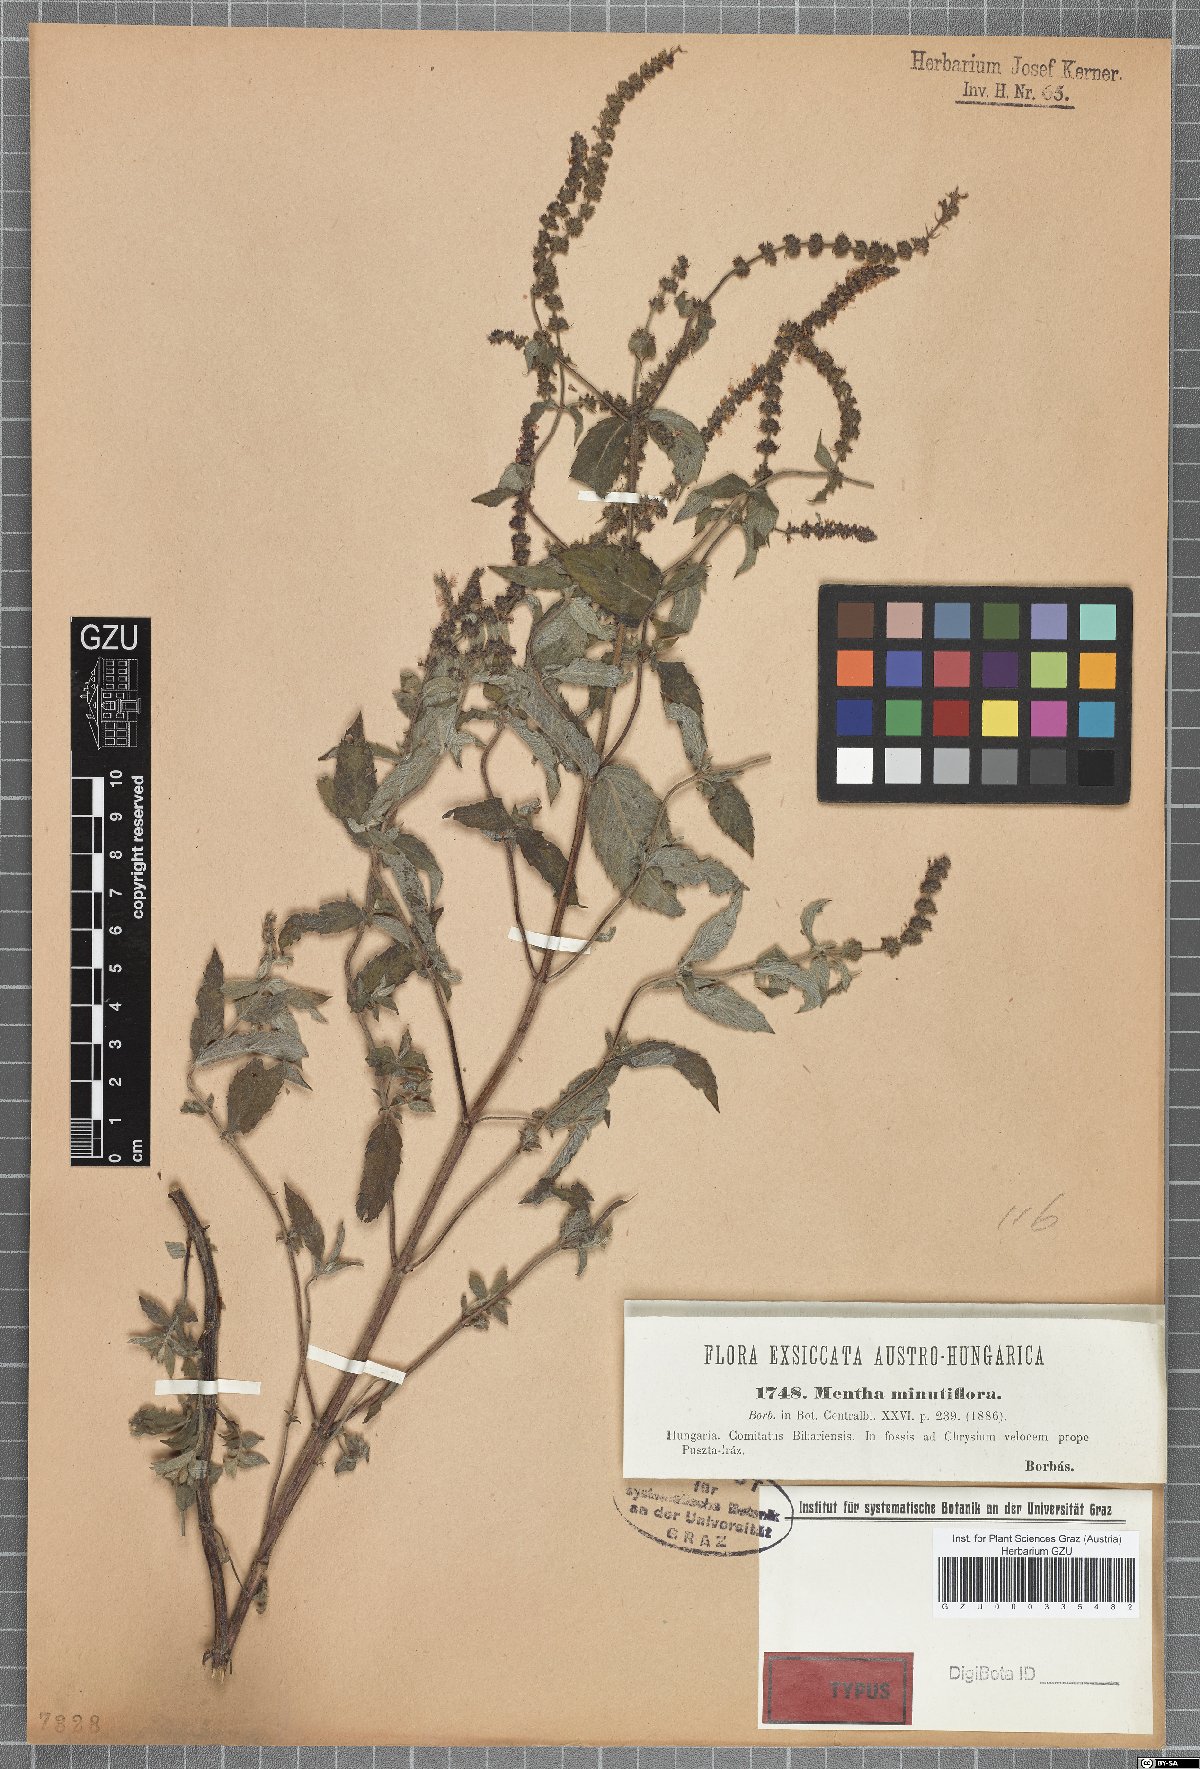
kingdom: Plantae
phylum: Tracheophyta
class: Magnoliopsida
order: Lamiales
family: Lamiaceae
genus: Mentha
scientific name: Mentha minutiflora
